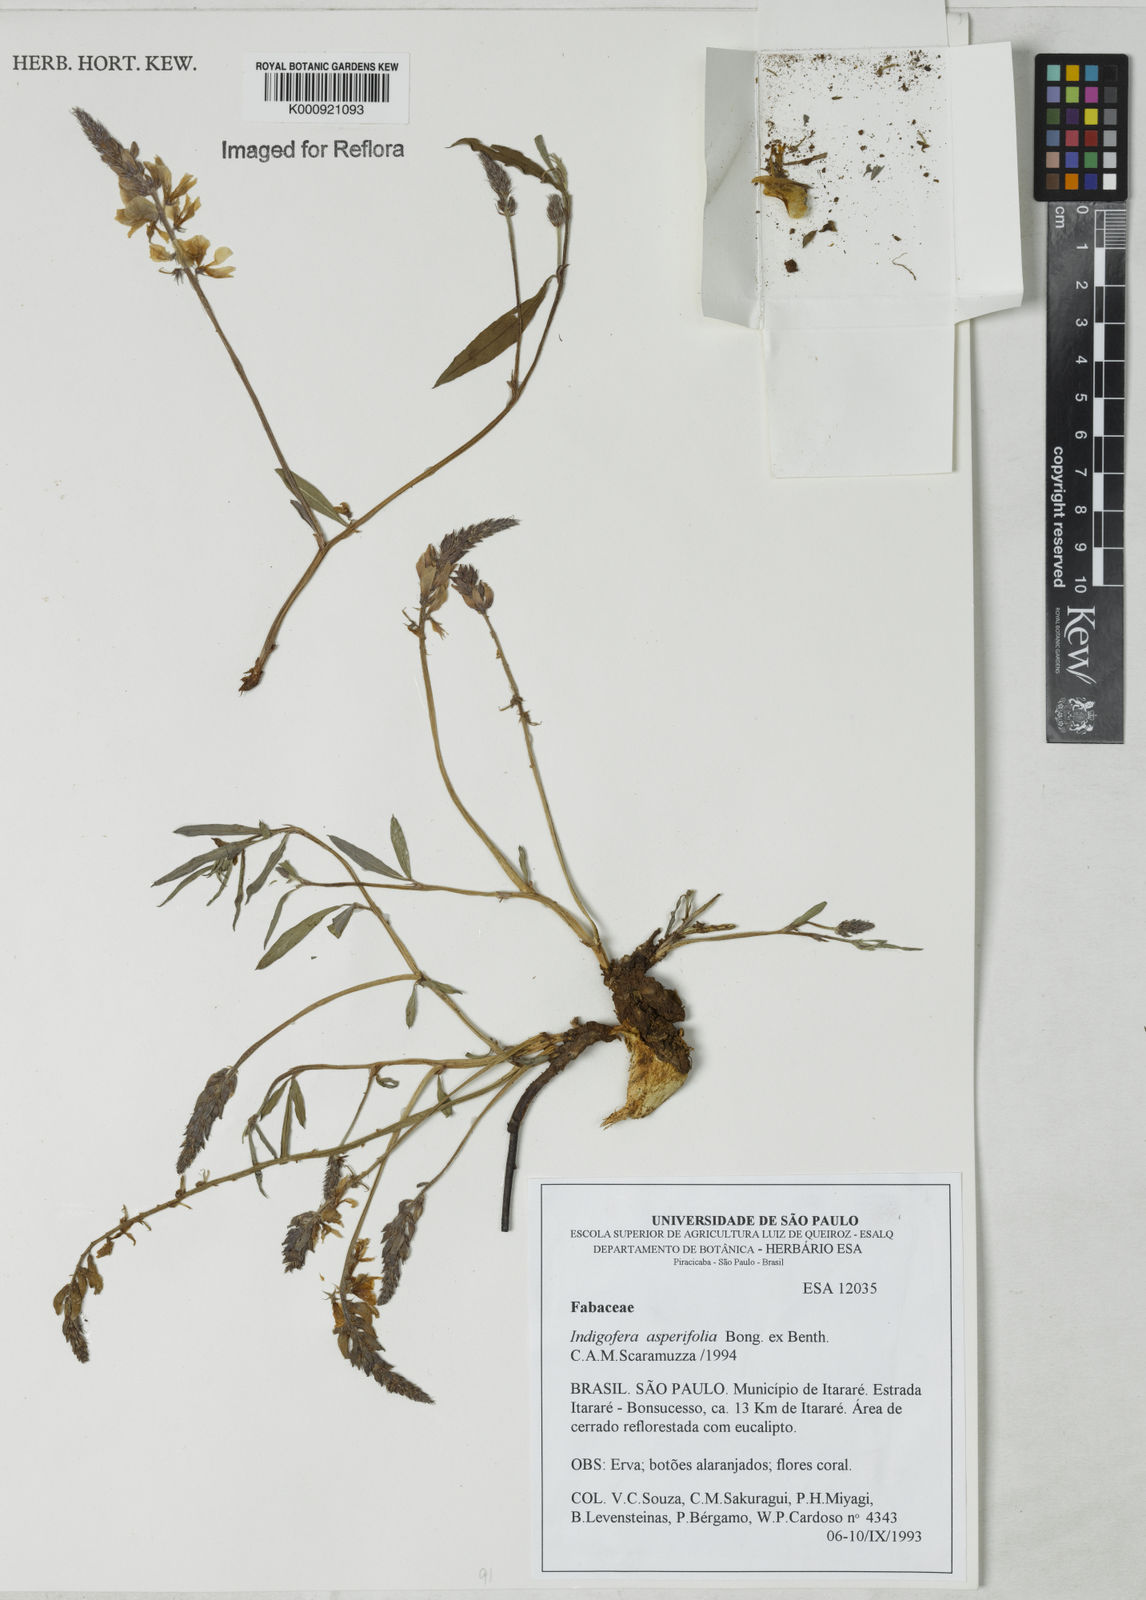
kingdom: Plantae
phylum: Tracheophyta
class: Magnoliopsida
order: Fabales
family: Fabaceae
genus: Indigofera
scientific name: Indigofera asperifolia
